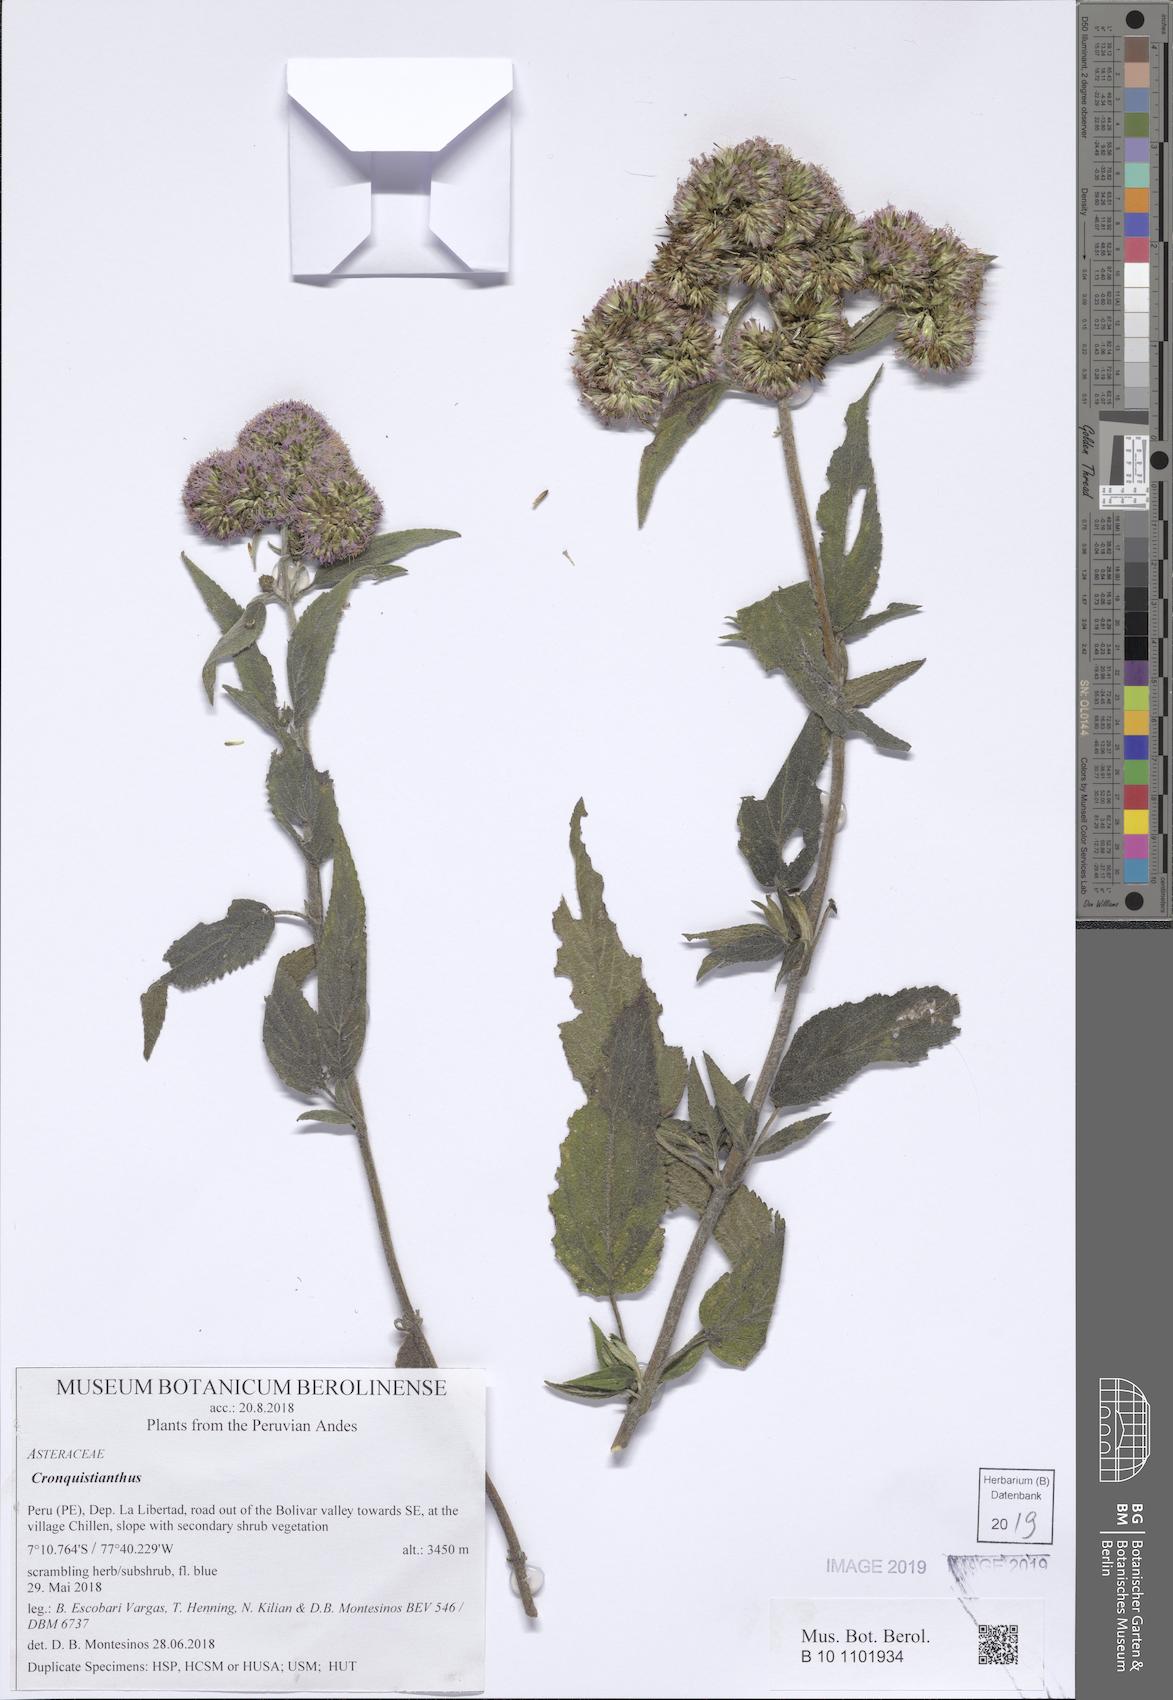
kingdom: Plantae
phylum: Tracheophyta
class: Magnoliopsida
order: Asterales
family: Asteraceae
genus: Cronquistianthus
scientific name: Cronquistianthus urubambensis
